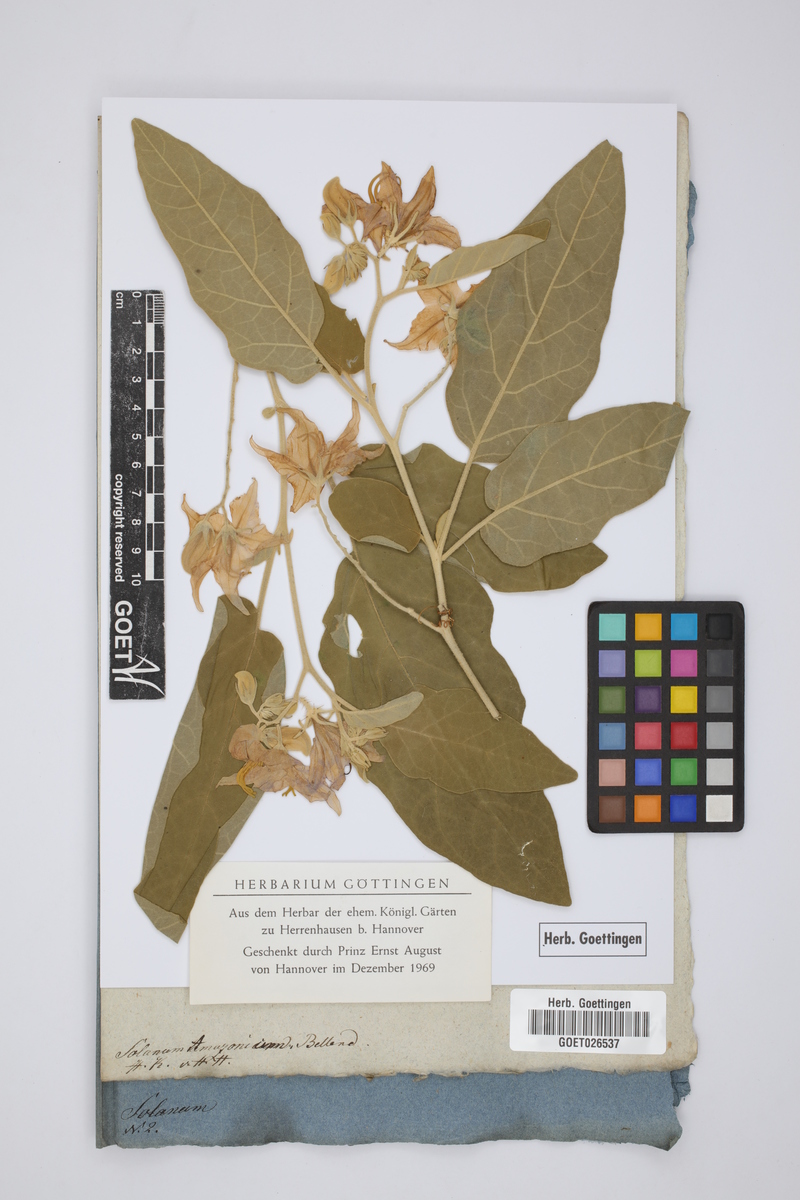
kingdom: Plantae
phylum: Tracheophyta
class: Magnoliopsida
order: Solanales
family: Solanaceae
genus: Solanum
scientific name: Solanum houstonii
